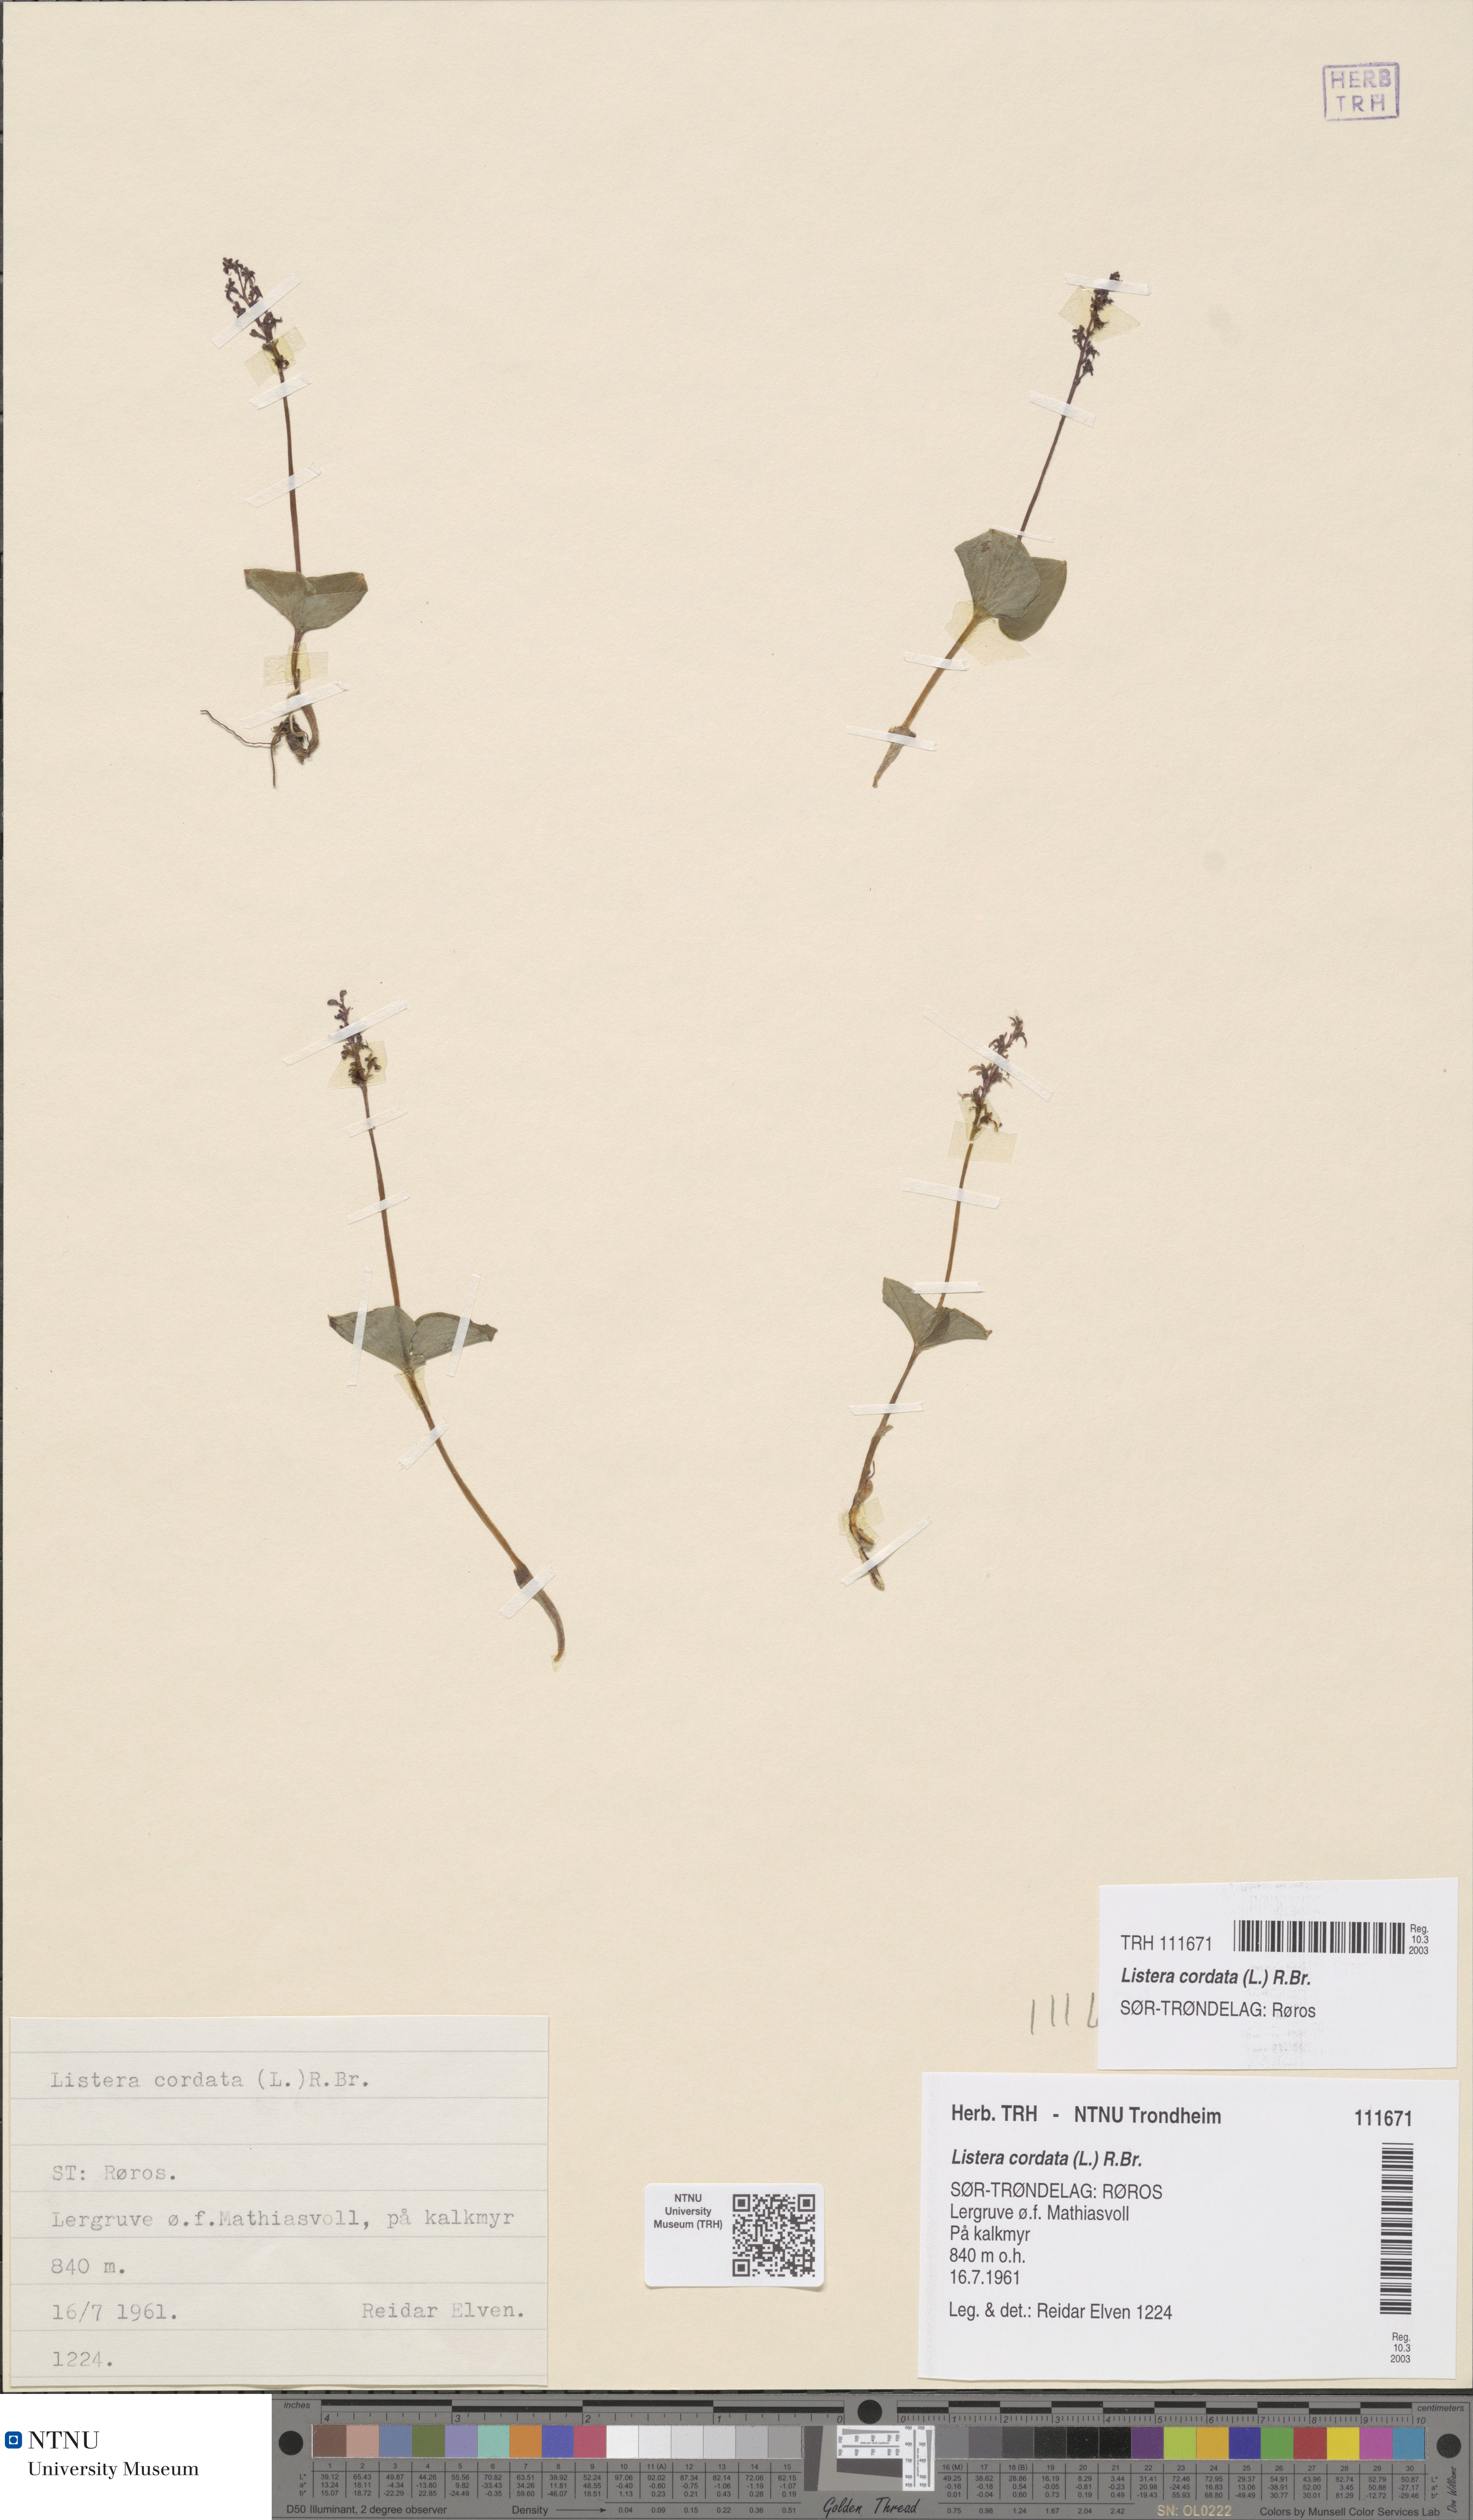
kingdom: Plantae
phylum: Tracheophyta
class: Liliopsida
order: Asparagales
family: Orchidaceae
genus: Neottia
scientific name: Neottia cordata
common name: Lesser twayblade
